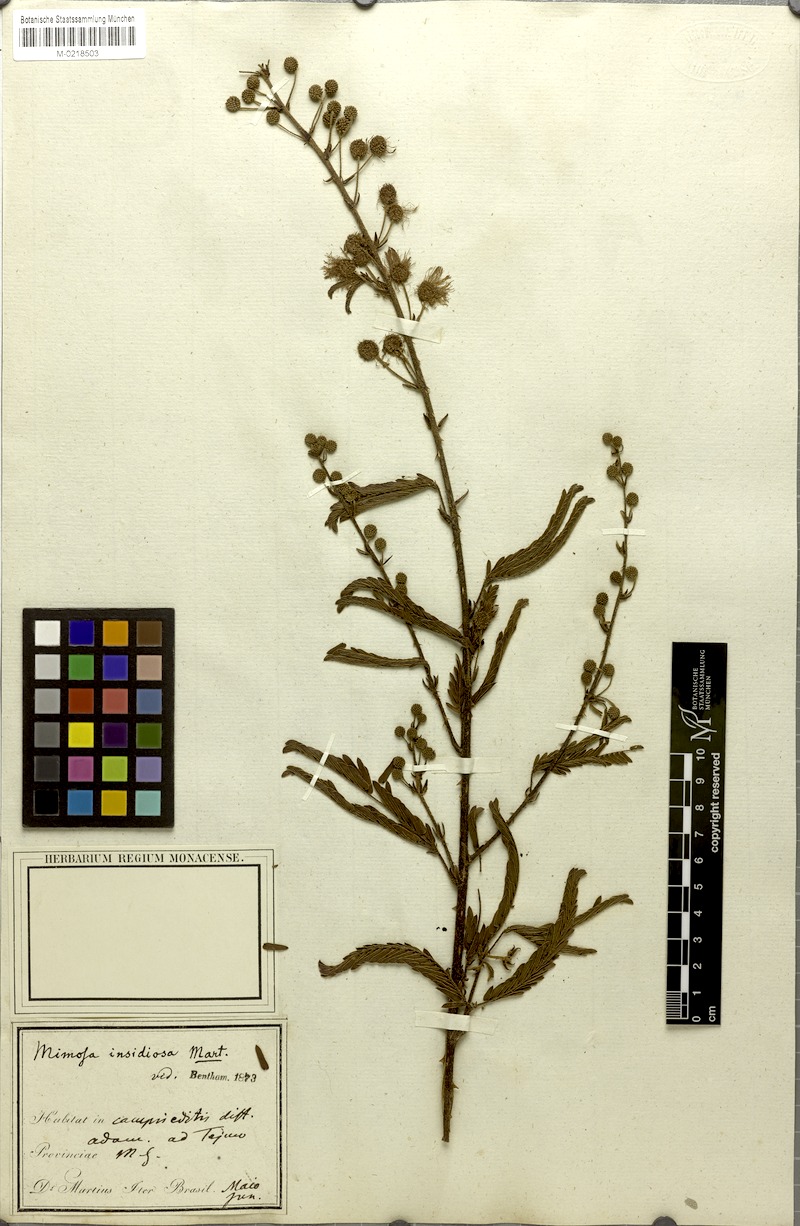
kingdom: Plantae
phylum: Tracheophyta
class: Magnoliopsida
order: Fabales
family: Fabaceae
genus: Mimosa
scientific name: Mimosa insidiosa
